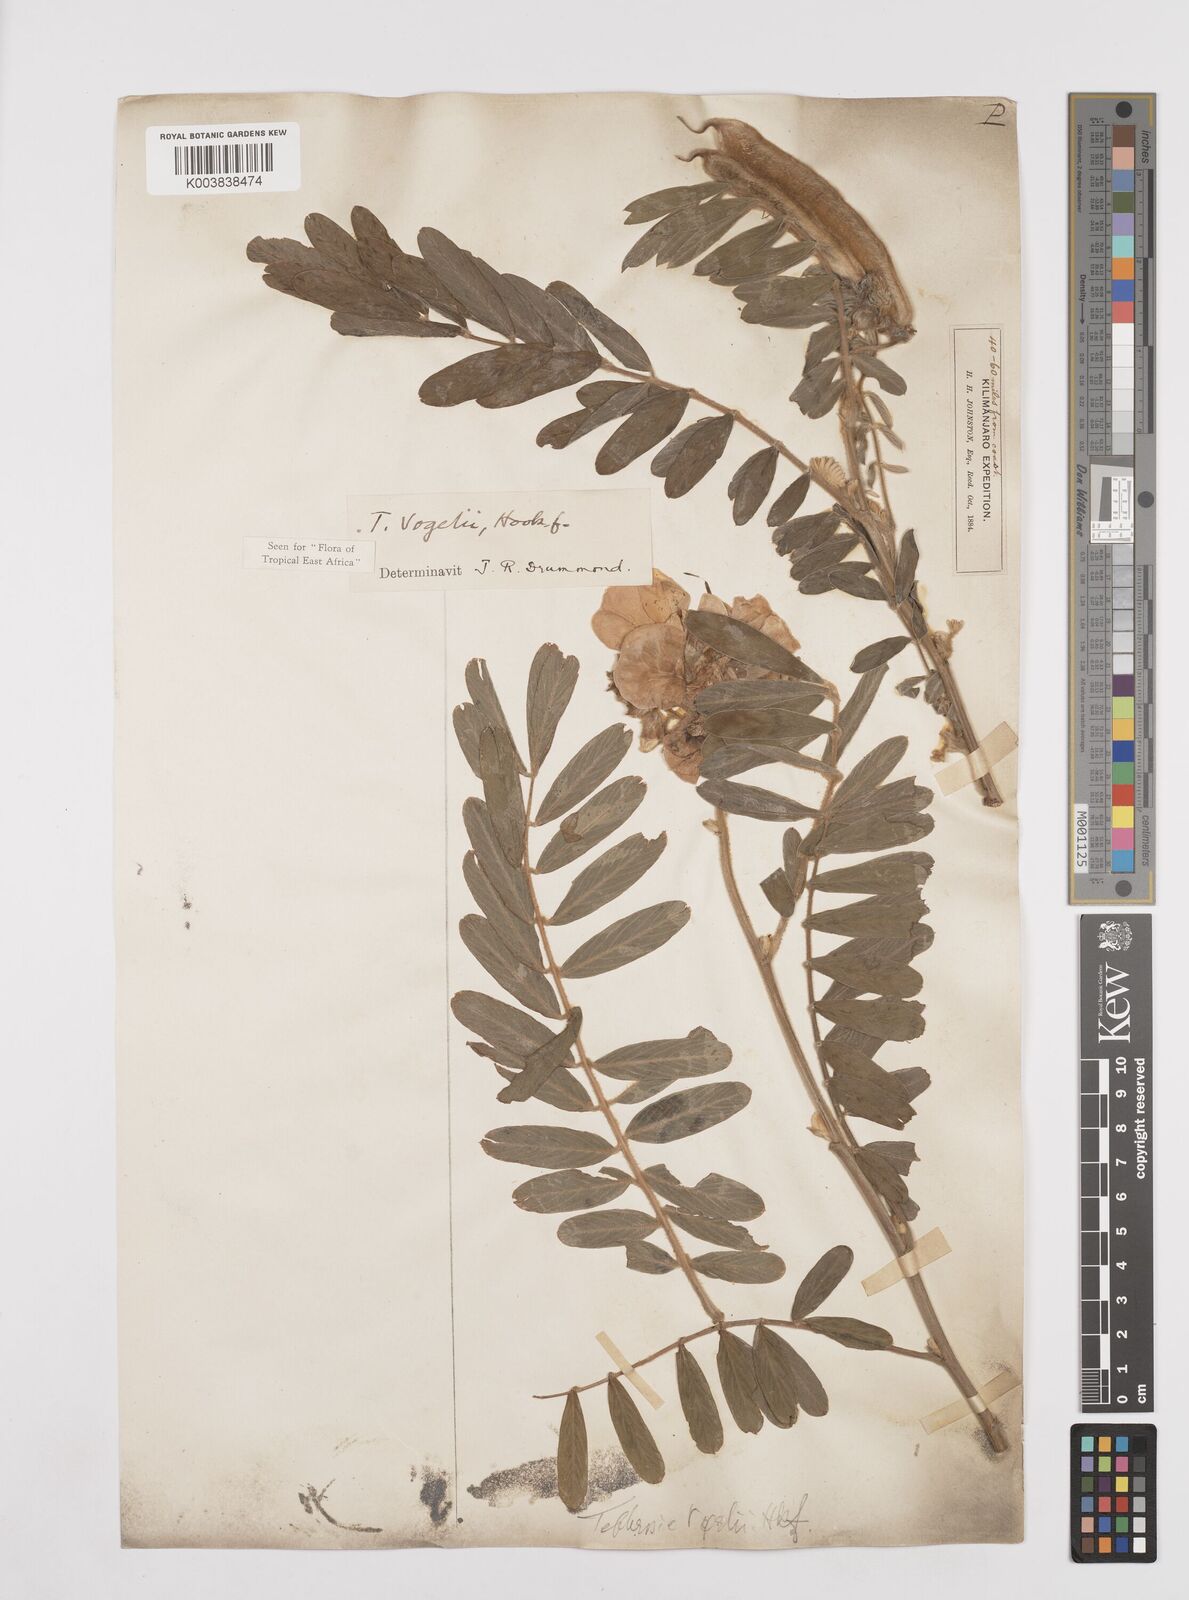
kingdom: Plantae
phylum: Tracheophyta
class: Magnoliopsida
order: Fabales
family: Fabaceae
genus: Tephrosia
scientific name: Tephrosia vogelii
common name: Vogel tephrosia
